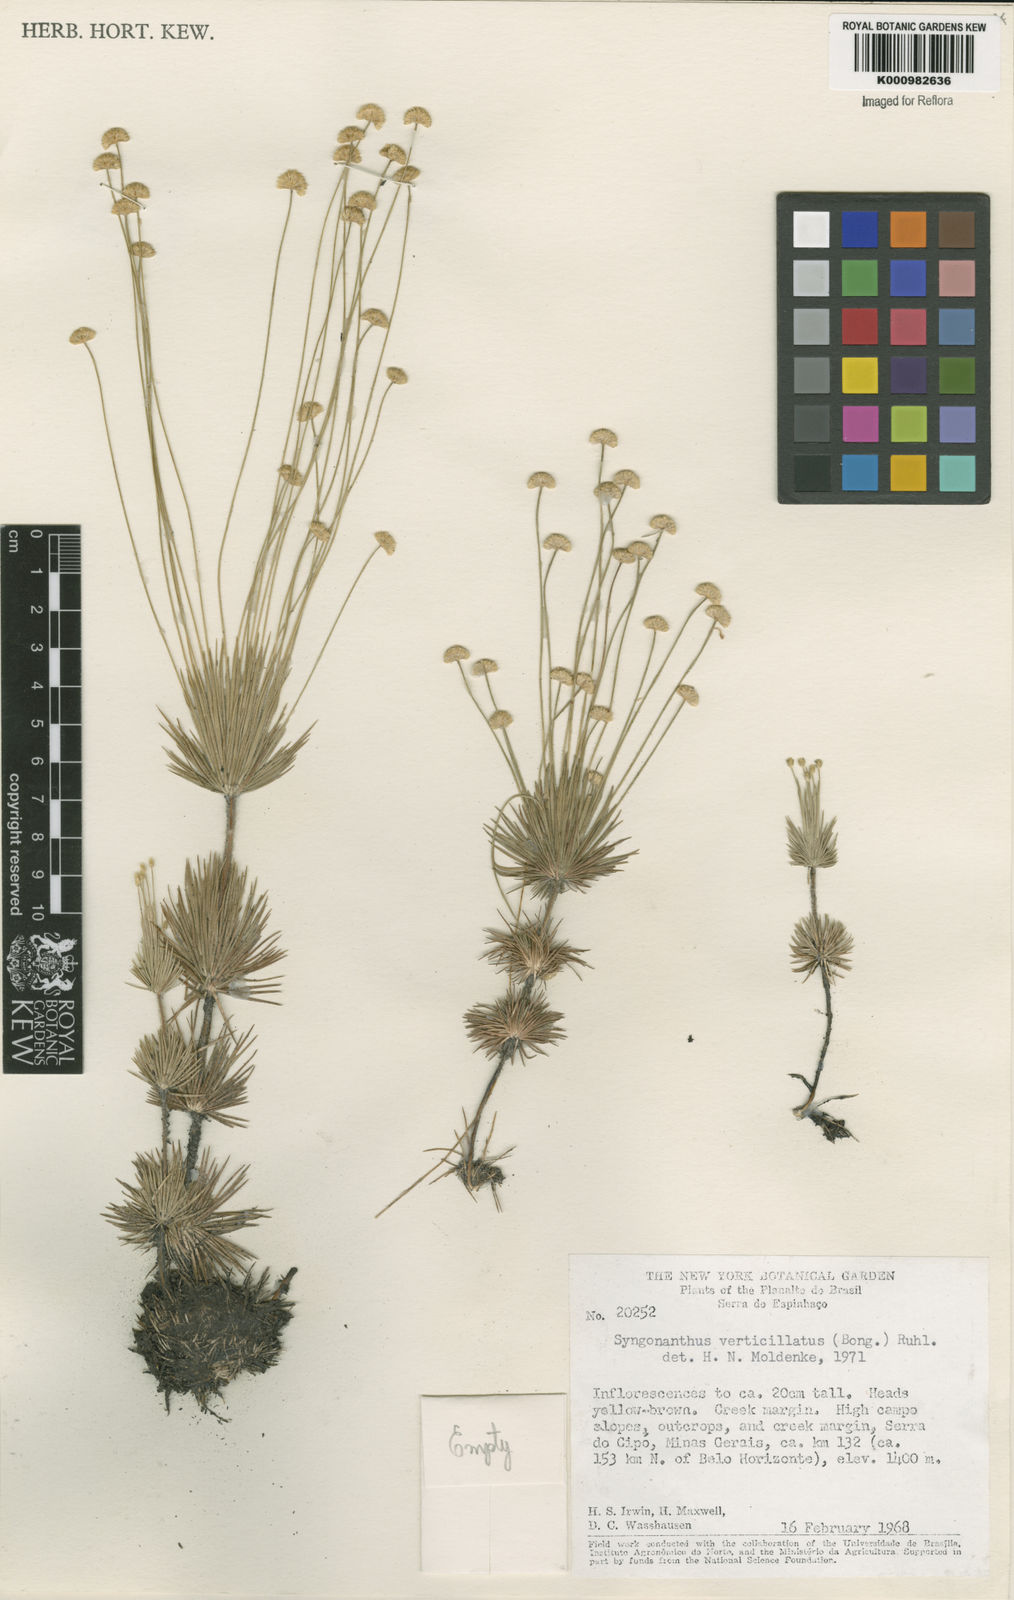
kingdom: Plantae
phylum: Tracheophyta
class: Liliopsida
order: Poales
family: Eriocaulaceae
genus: Syngonanthus
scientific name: Syngonanthus verticillatus
